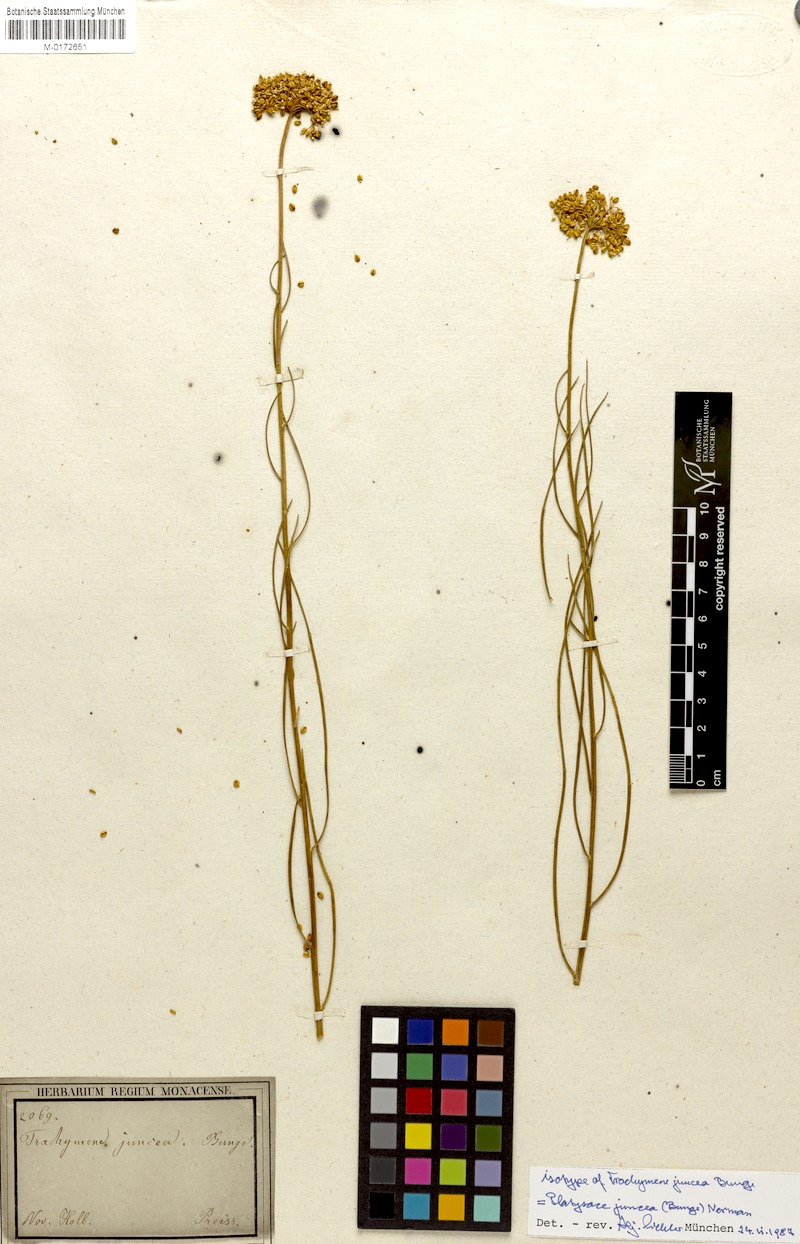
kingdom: Plantae
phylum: Tracheophyta
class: Magnoliopsida
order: Apiales
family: Apiaceae
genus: Platysace
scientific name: Platysace juncea
